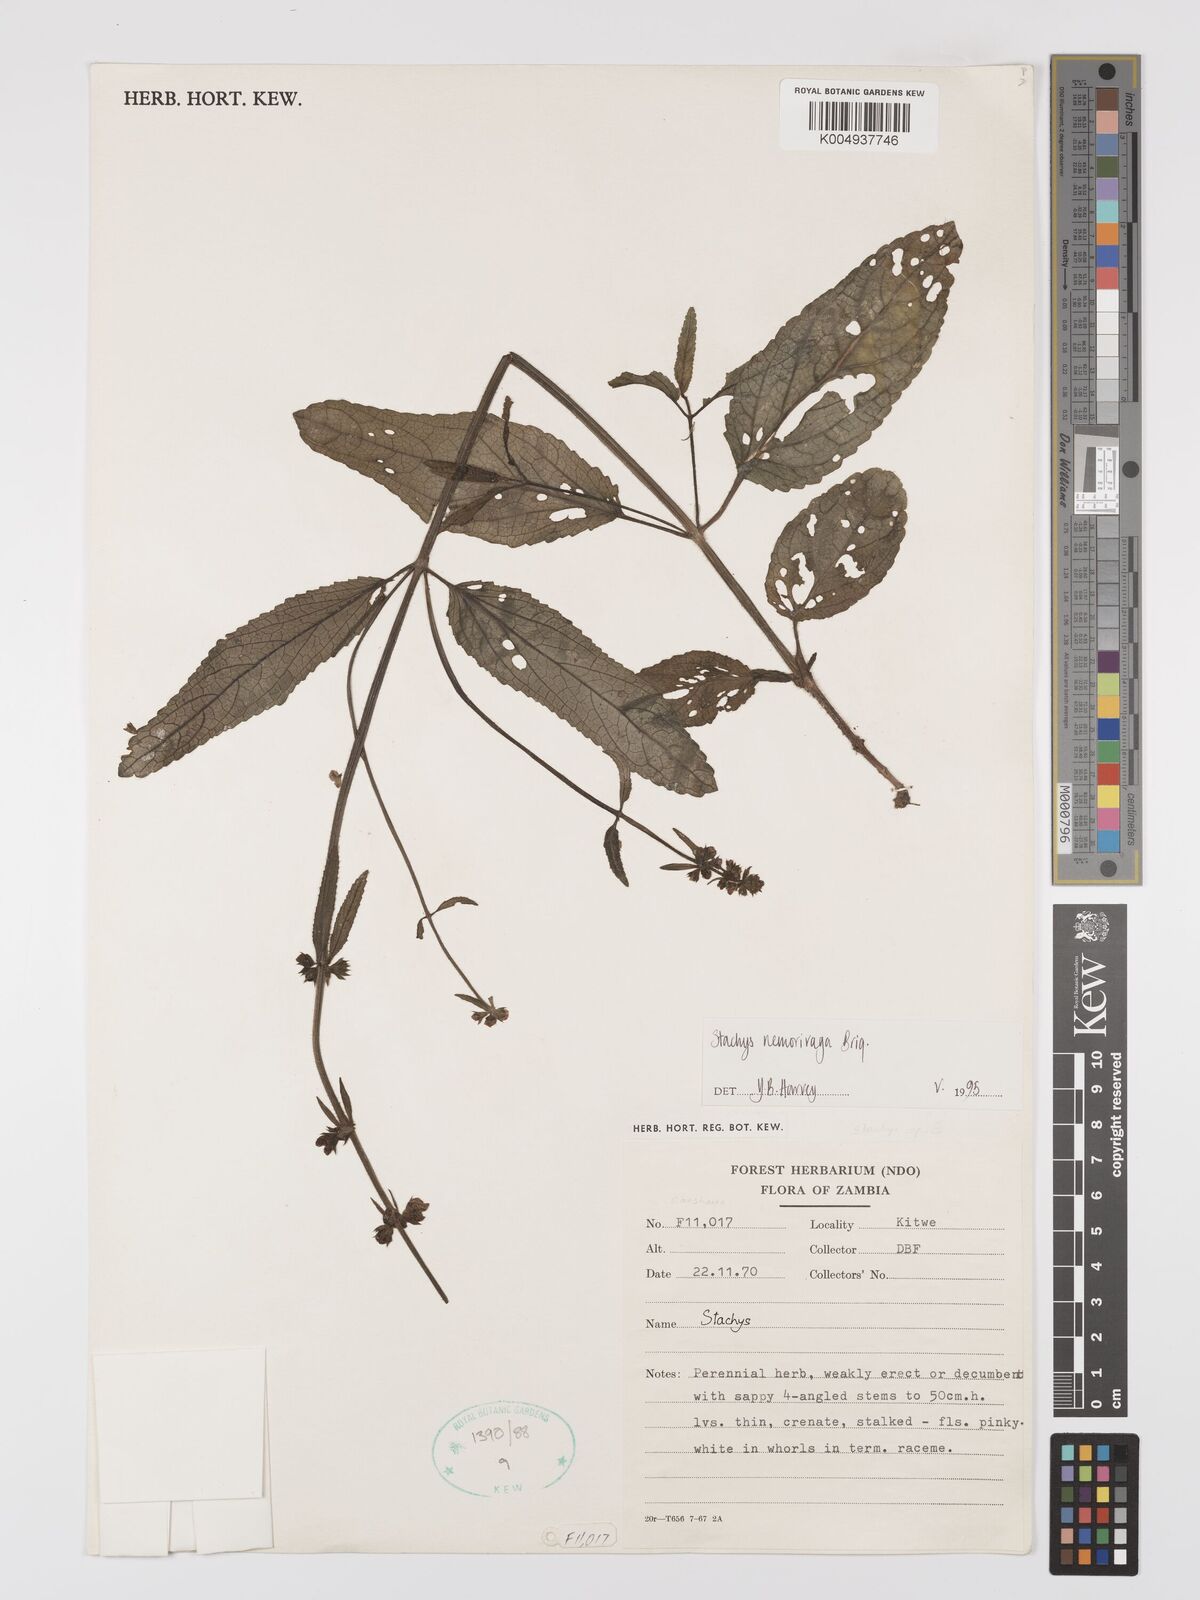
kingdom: Plantae
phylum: Tracheophyta
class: Magnoliopsida
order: Lamiales
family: Lamiaceae
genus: Stachys
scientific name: Stachys nemorivaga
